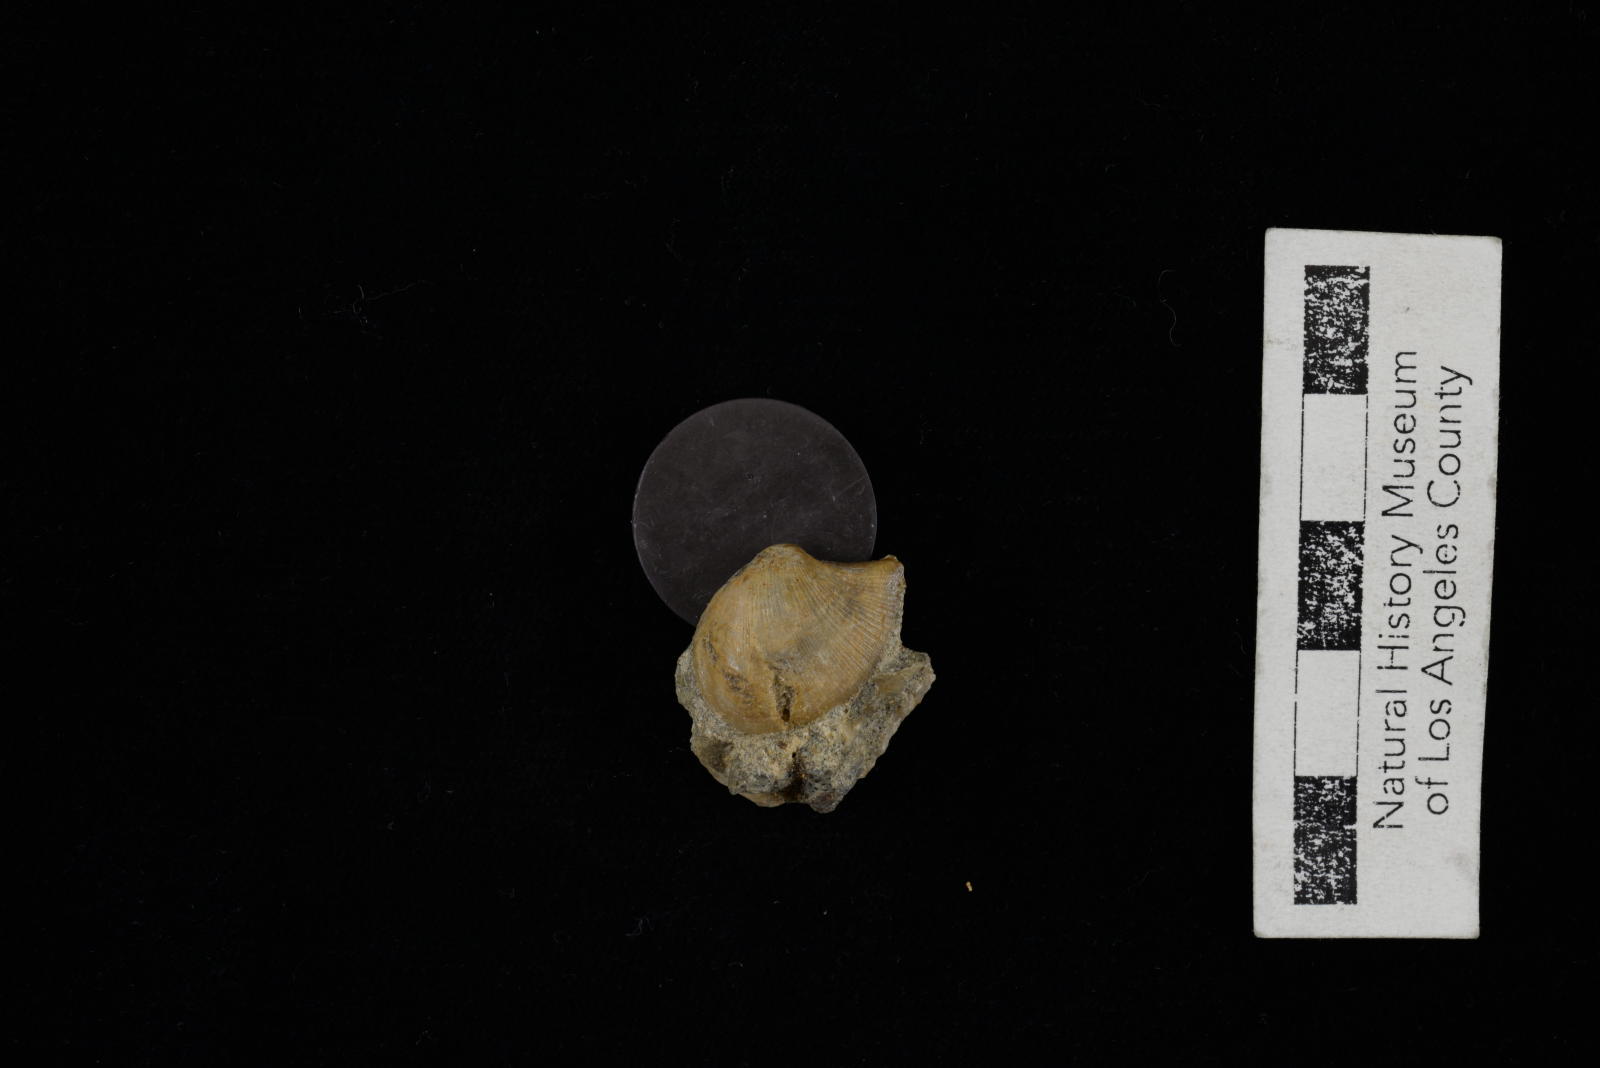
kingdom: Animalia
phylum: Mollusca
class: Bivalvia
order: Cardiida
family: Tancrediidae
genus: Meekia
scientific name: Meekia iberica
